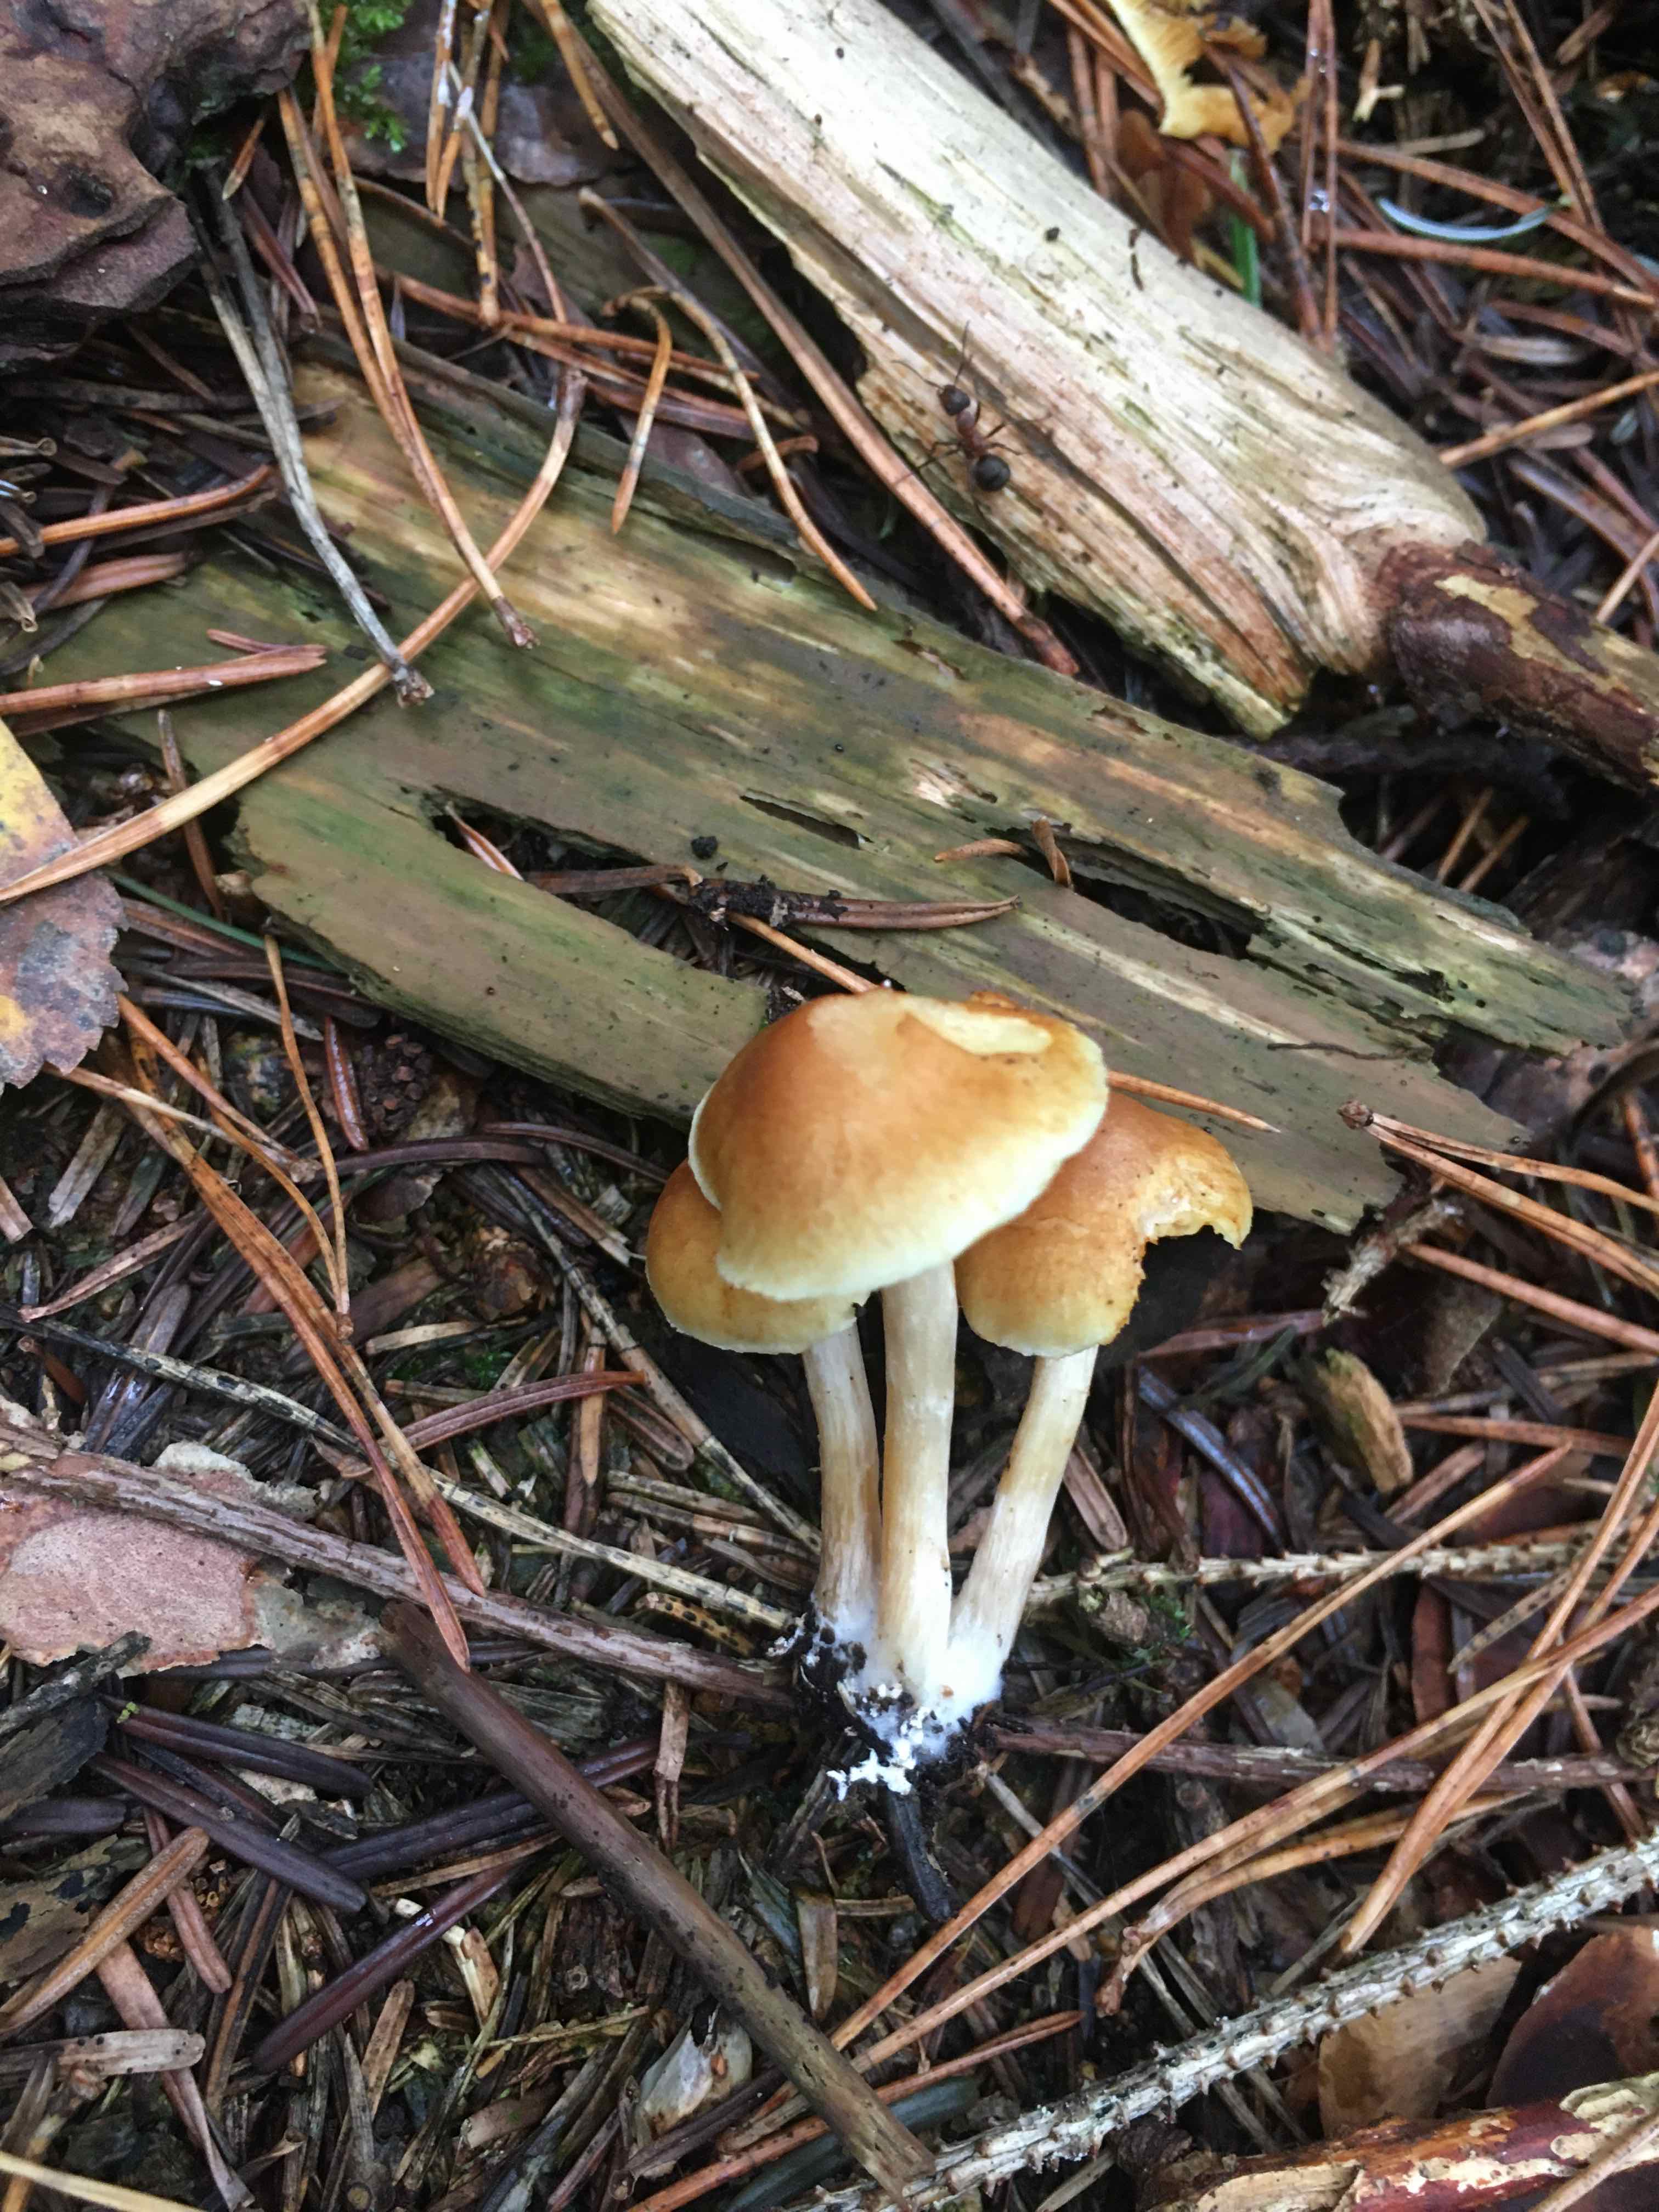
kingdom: Fungi
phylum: Basidiomycota
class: Agaricomycetes
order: Agaricales
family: Hymenogastraceae
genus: Gymnopilus
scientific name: Gymnopilus penetrans
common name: plettet flammehat
